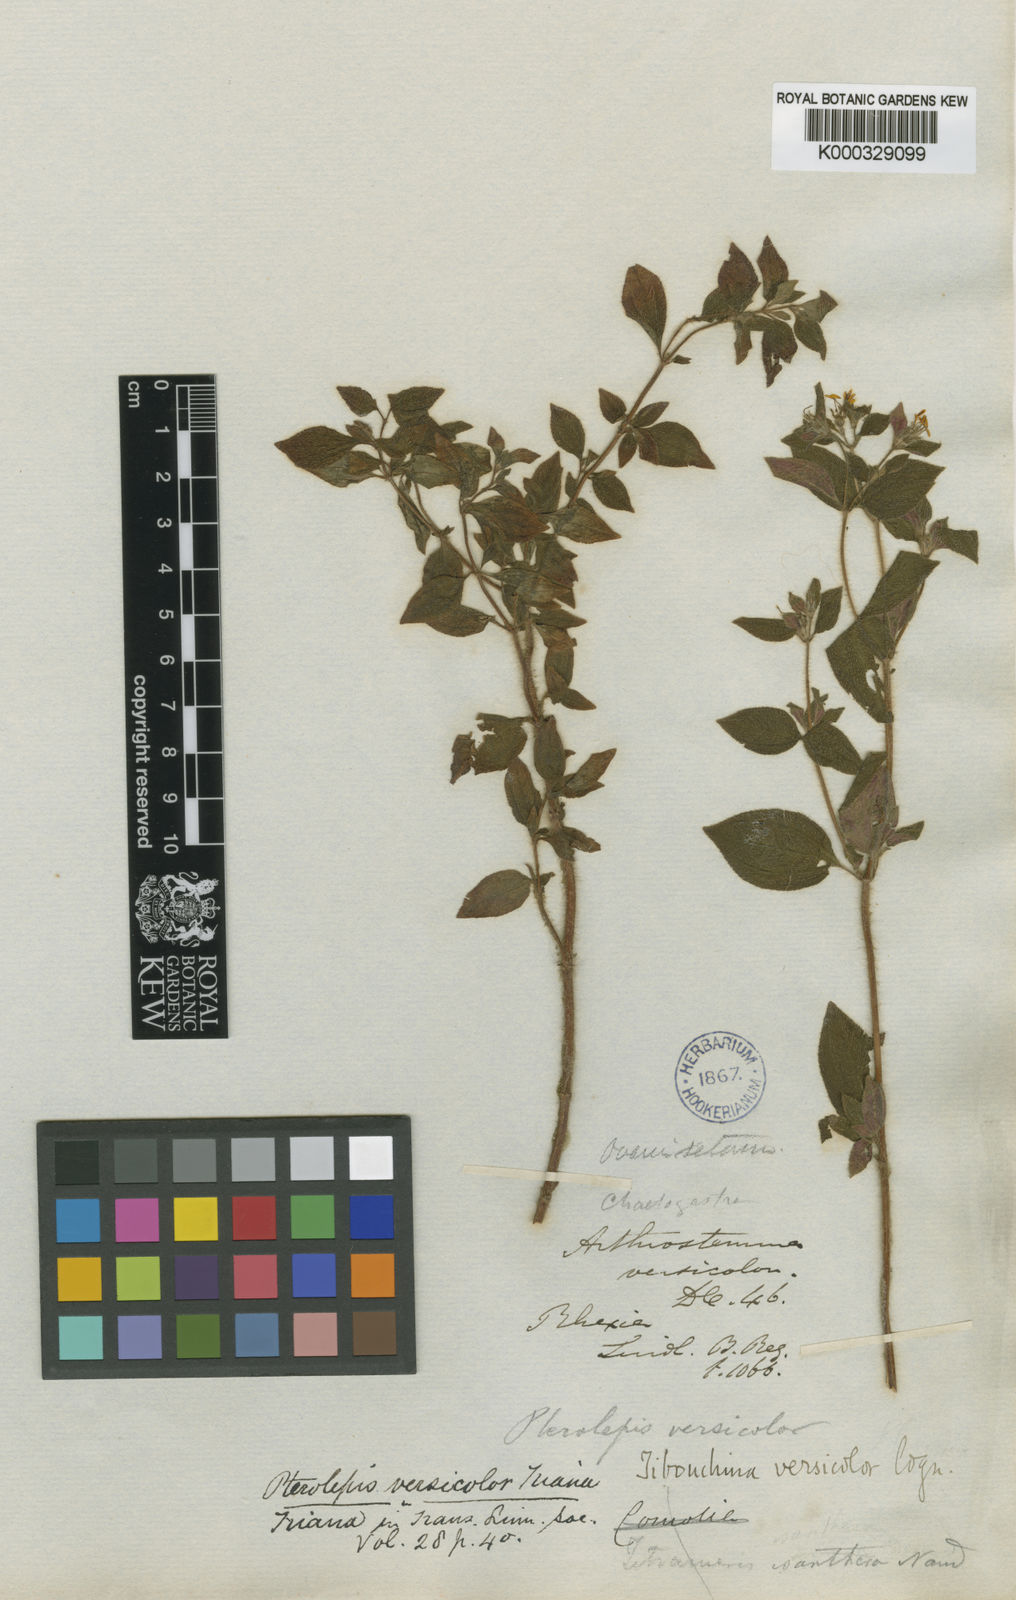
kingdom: Plantae
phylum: Tracheophyta
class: Magnoliopsida
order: Myrtales
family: Melastomataceae
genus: Chaetogastra
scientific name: Chaetogastra versicolor
